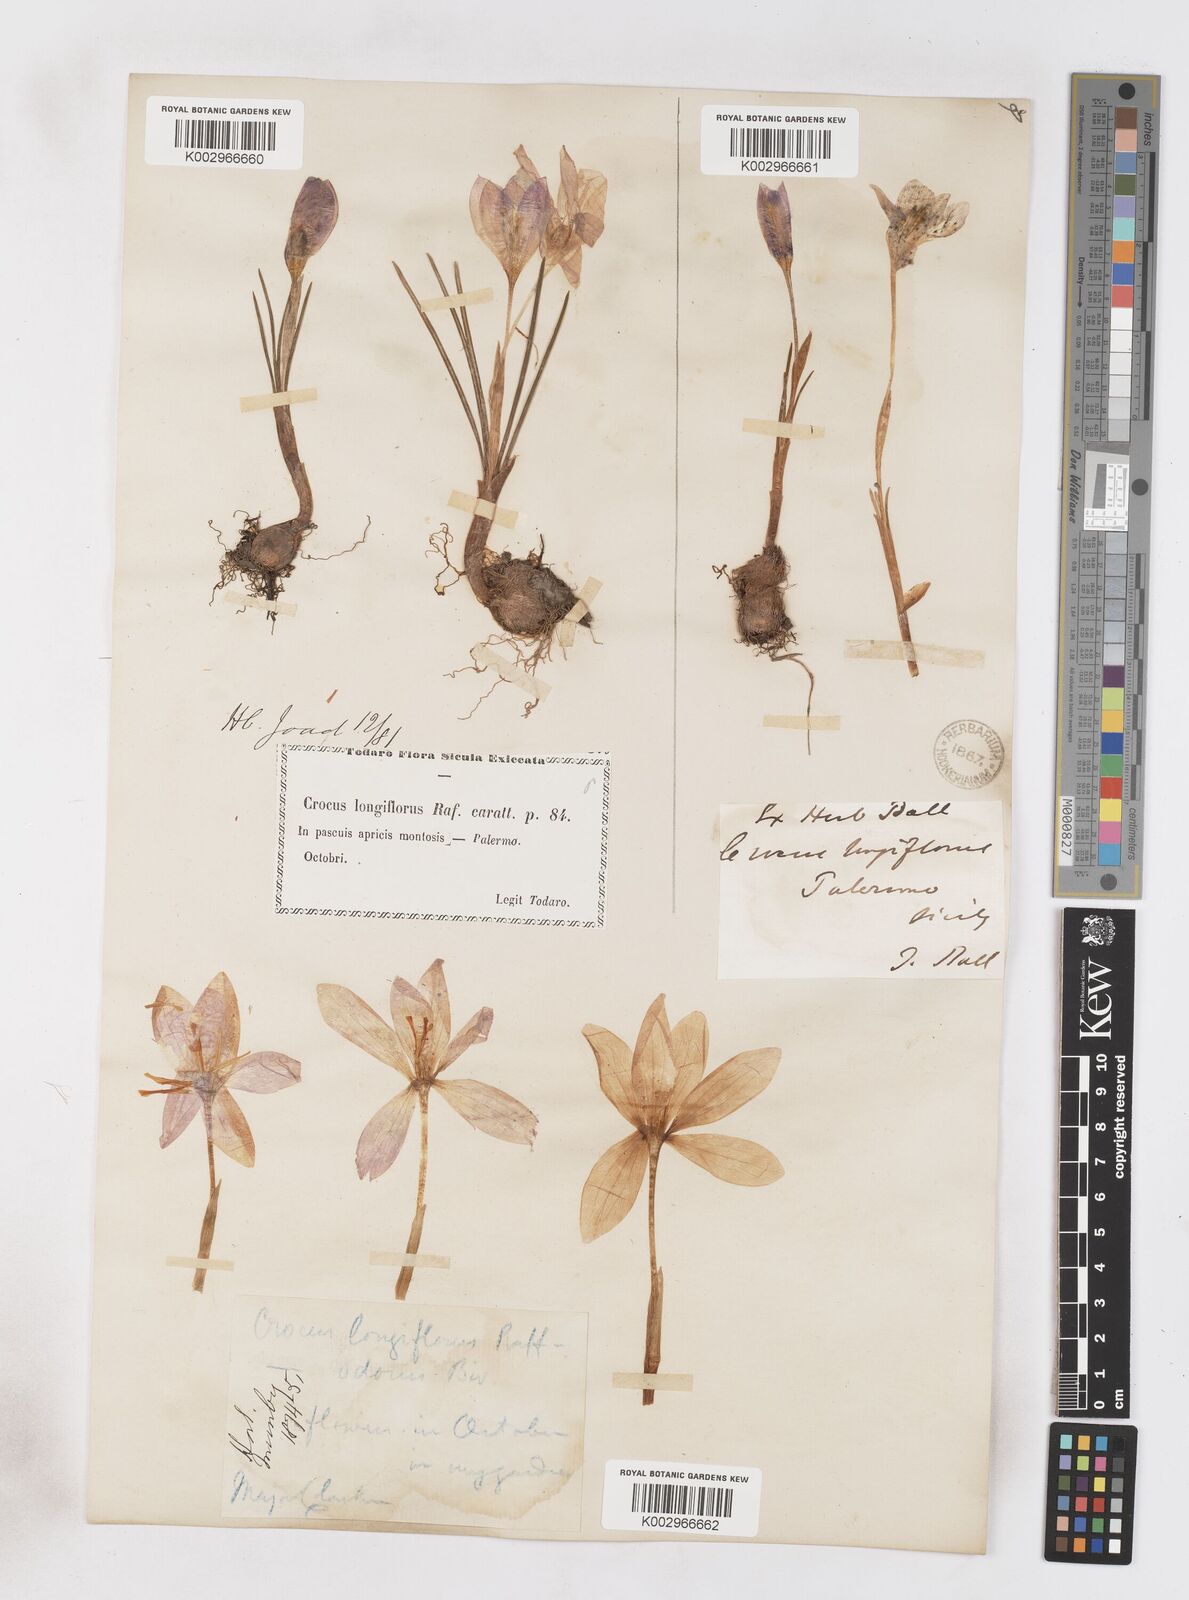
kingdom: Plantae
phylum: Tracheophyta
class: Liliopsida
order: Asparagales
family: Iridaceae
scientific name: Iridaceae
